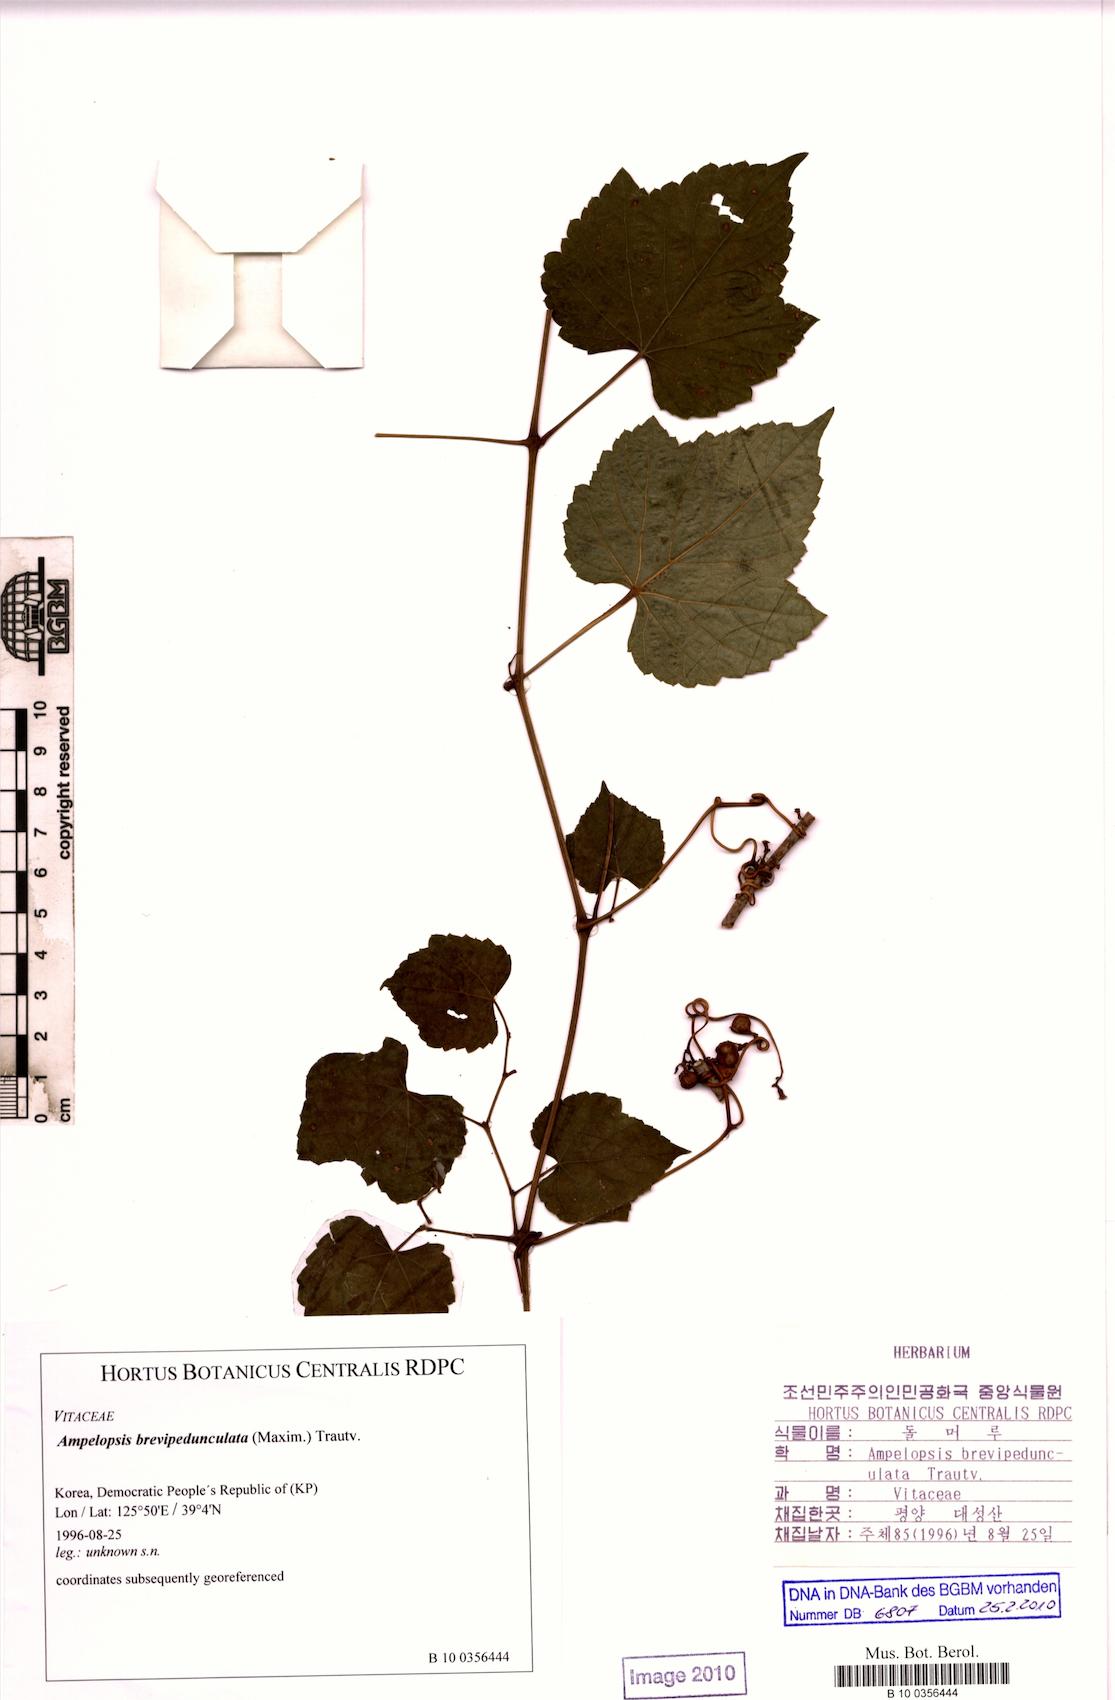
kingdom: Plantae
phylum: Tracheophyta
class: Magnoliopsida
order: Vitales
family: Vitaceae
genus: Ampelopsis
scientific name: Ampelopsis glandulosa
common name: Amur peppervine
